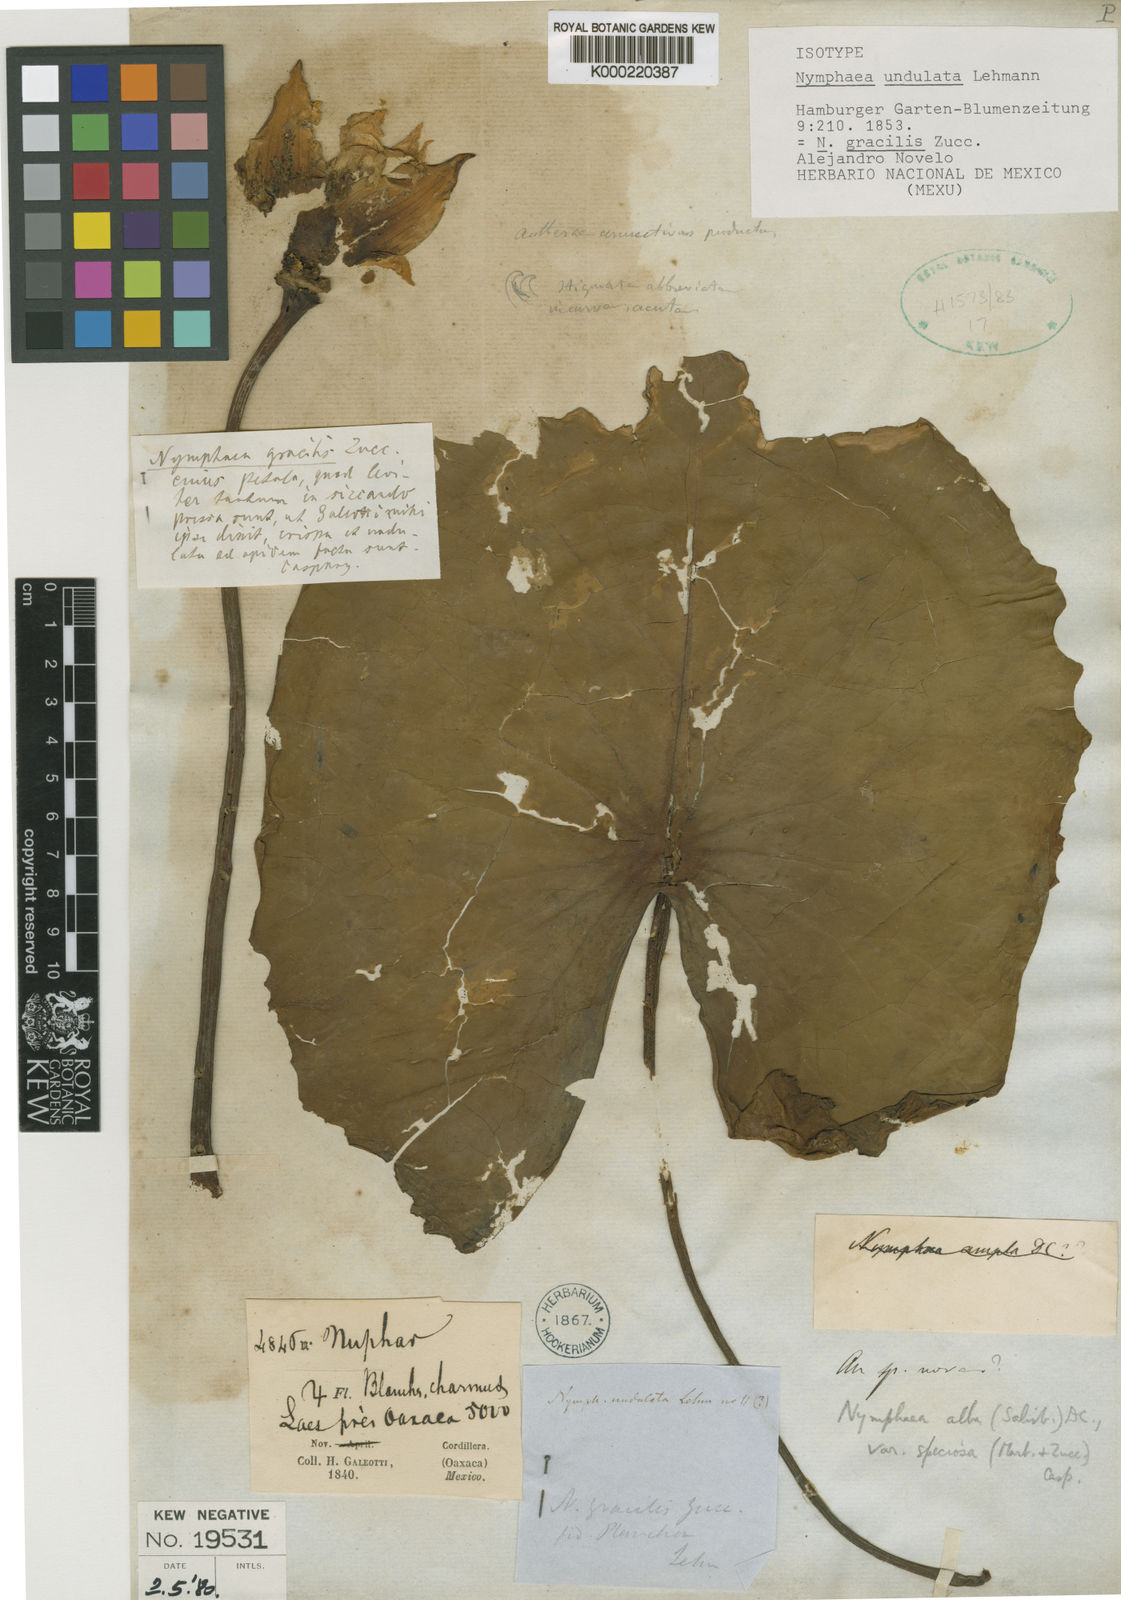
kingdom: Plantae
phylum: Tracheophyta
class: Magnoliopsida
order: Nymphaeales
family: Nymphaeaceae
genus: Nymphaea
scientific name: Nymphaea gracilis
